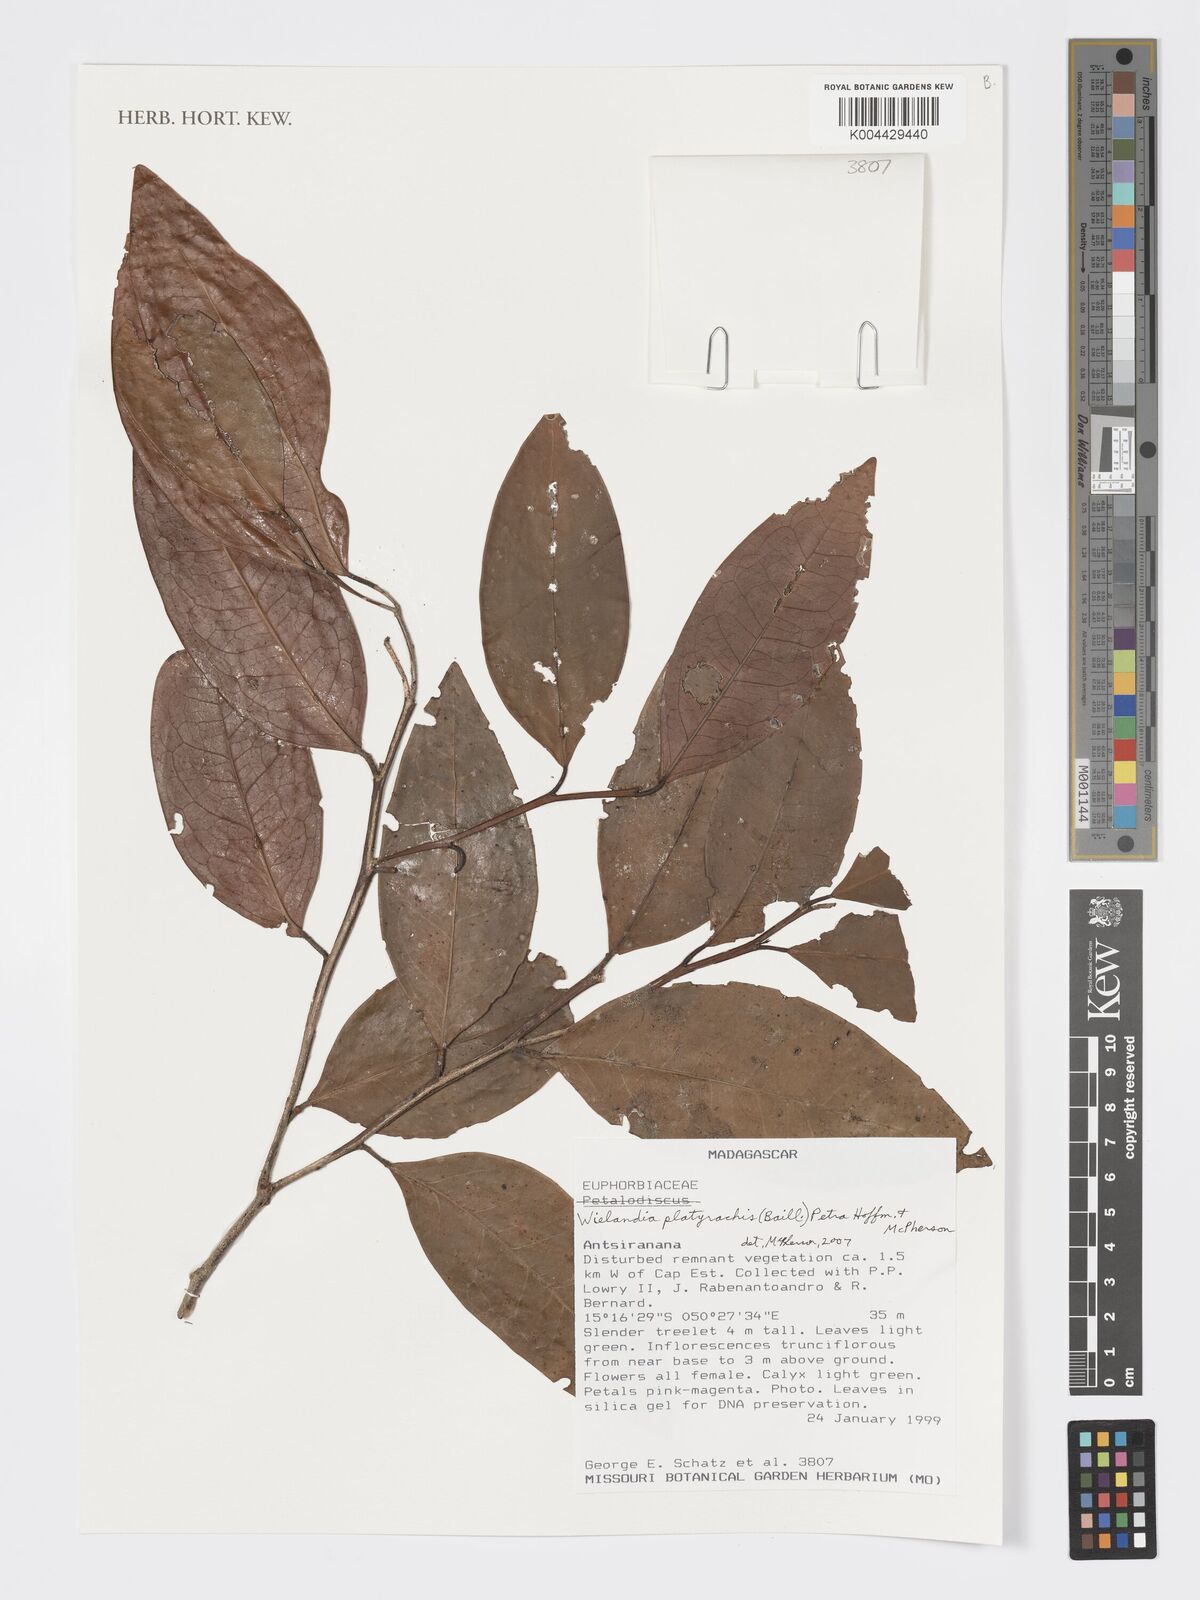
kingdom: Plantae
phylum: Tracheophyta
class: Magnoliopsida
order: Malpighiales
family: Phyllanthaceae
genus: Wielandia
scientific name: Wielandia platyrachis
